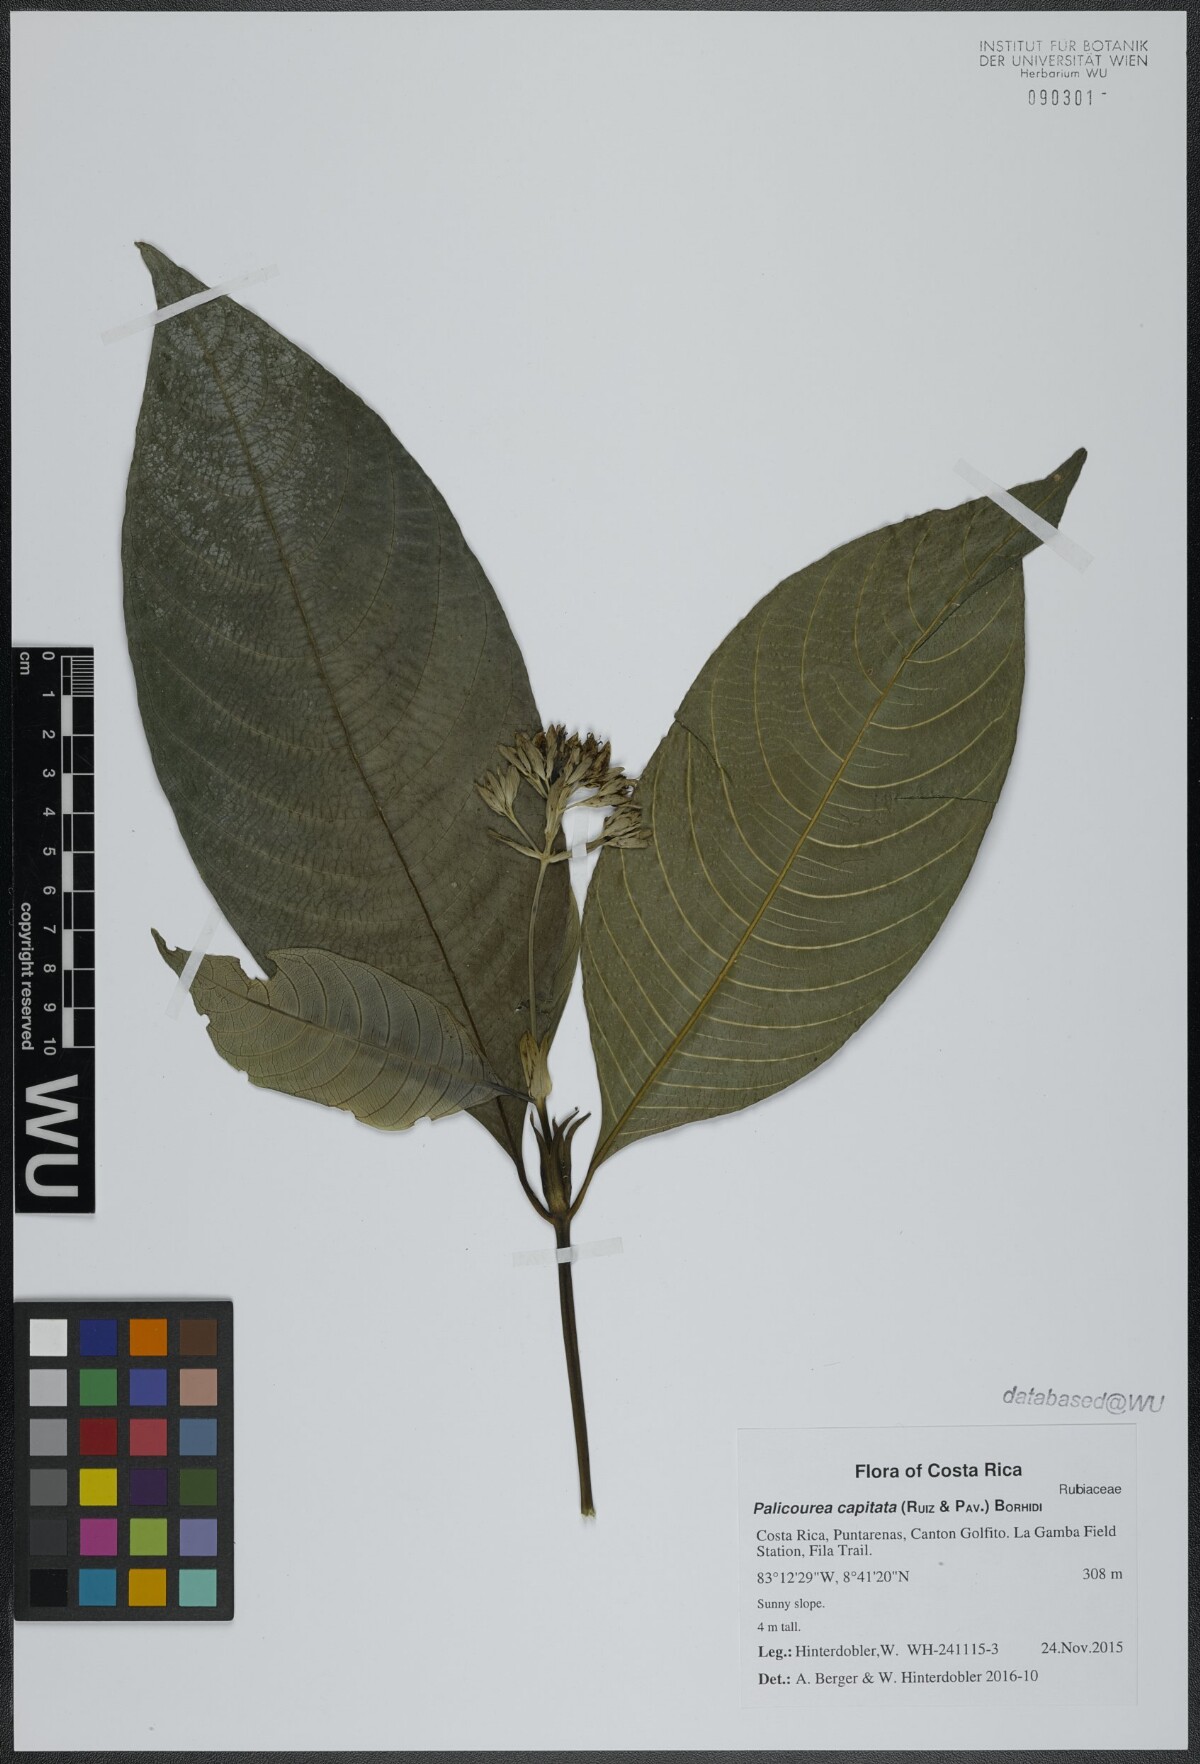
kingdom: Plantae
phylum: Tracheophyta
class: Magnoliopsida
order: Gentianales
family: Rubiaceae
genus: Palicourea
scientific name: Palicourea violacea
